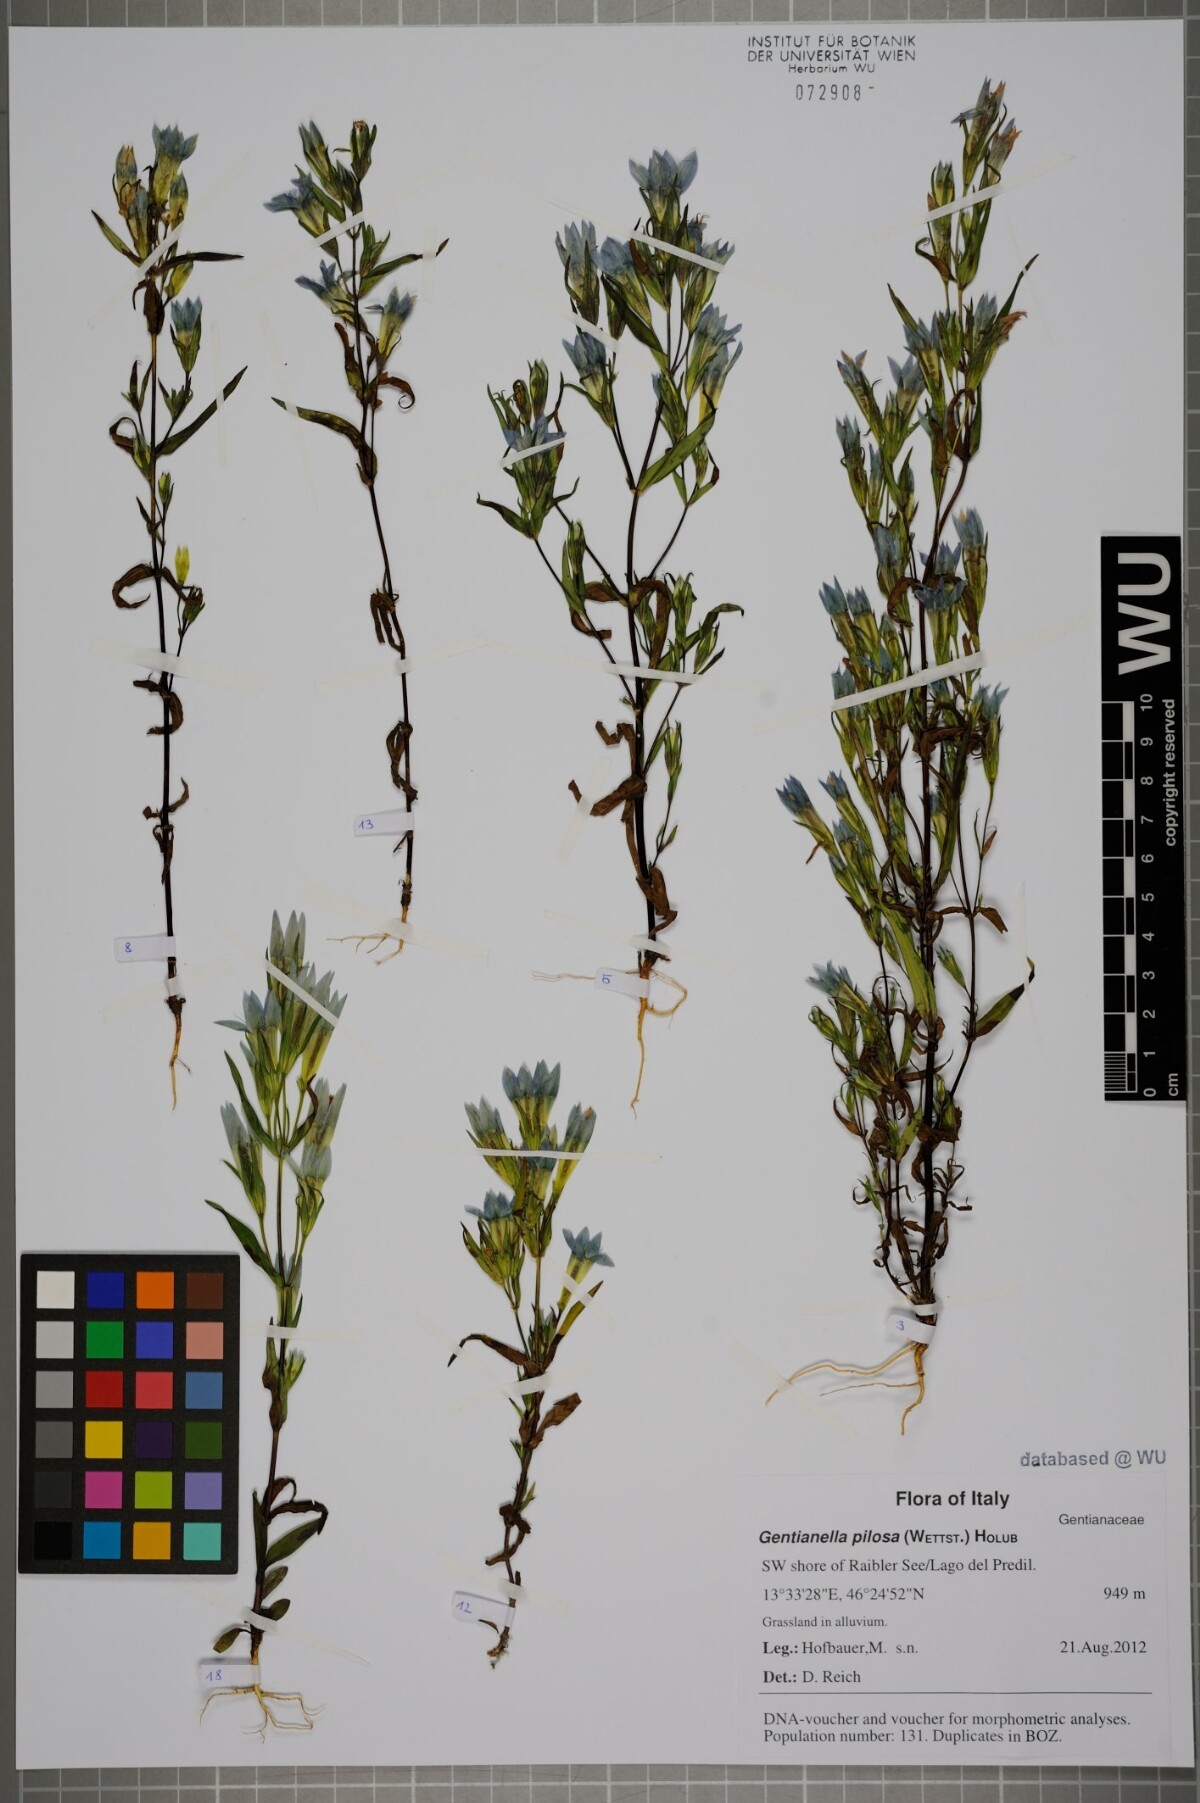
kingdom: Plantae
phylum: Tracheophyta
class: Magnoliopsida
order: Gentianales
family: Gentianaceae
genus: Gentianella
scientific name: Gentianella pilosa
